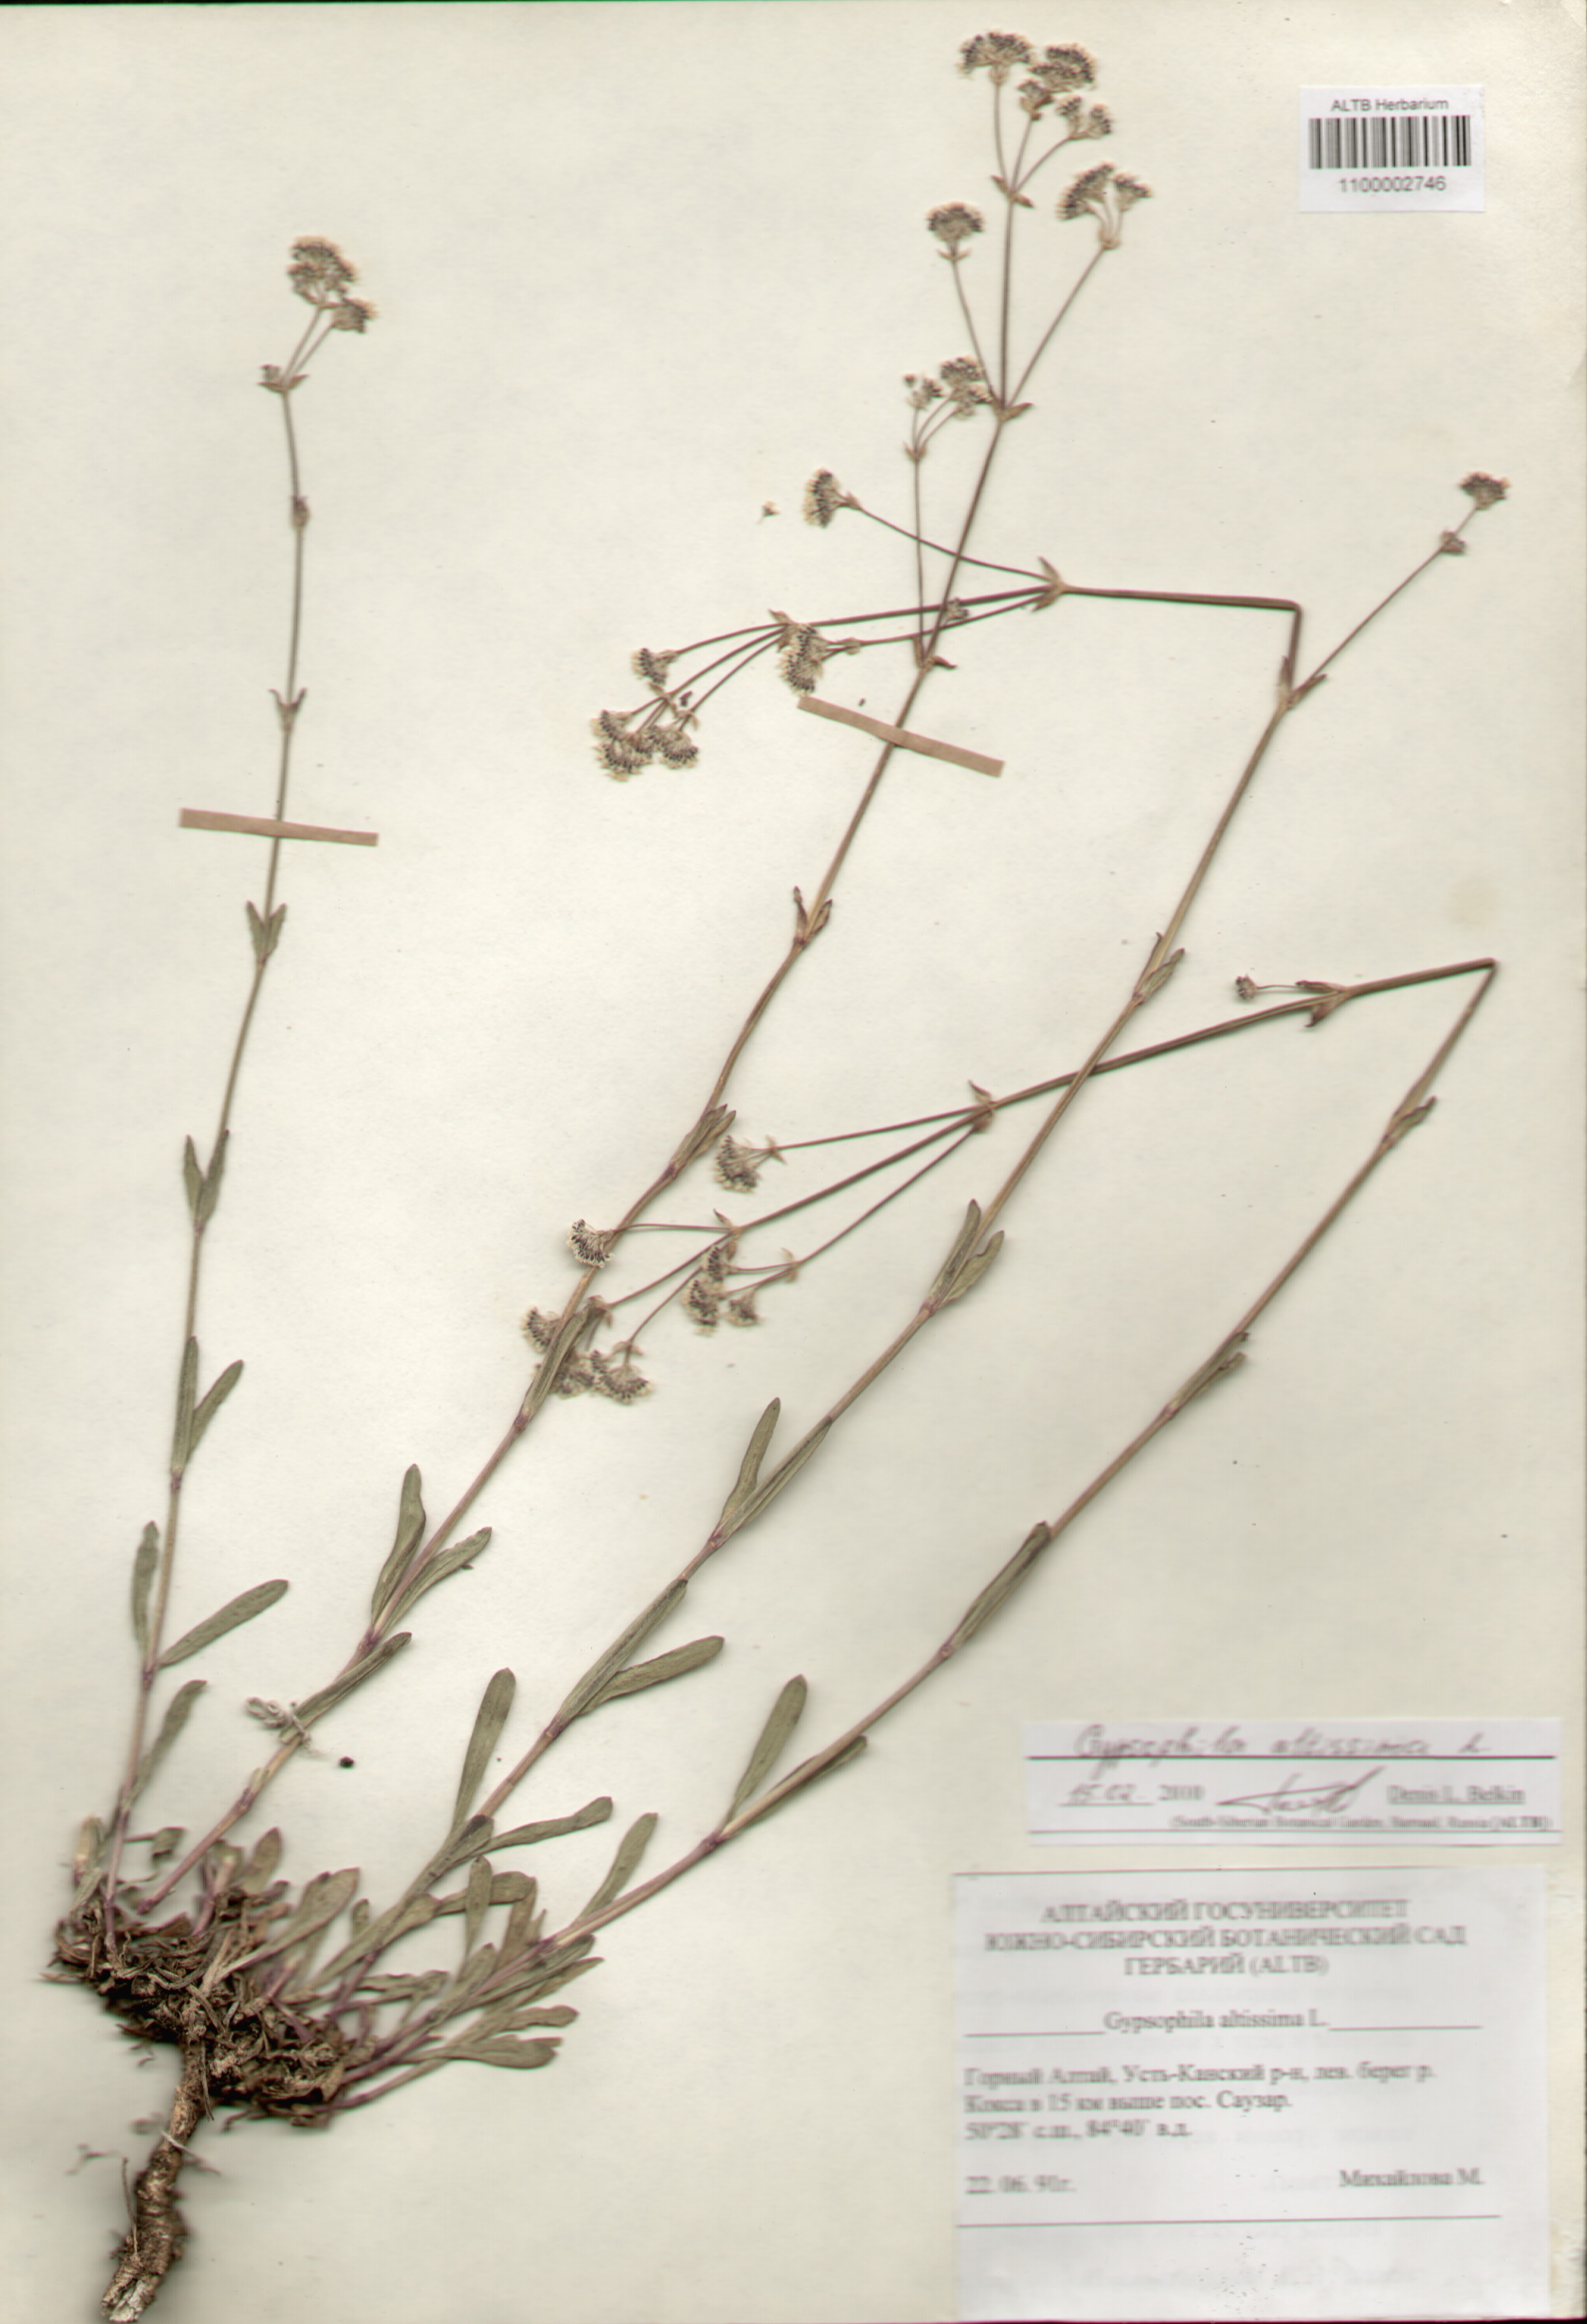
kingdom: Plantae
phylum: Tracheophyta
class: Magnoliopsida
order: Caryophyllales
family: Caryophyllaceae
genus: Gypsophila
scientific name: Gypsophila altissima
